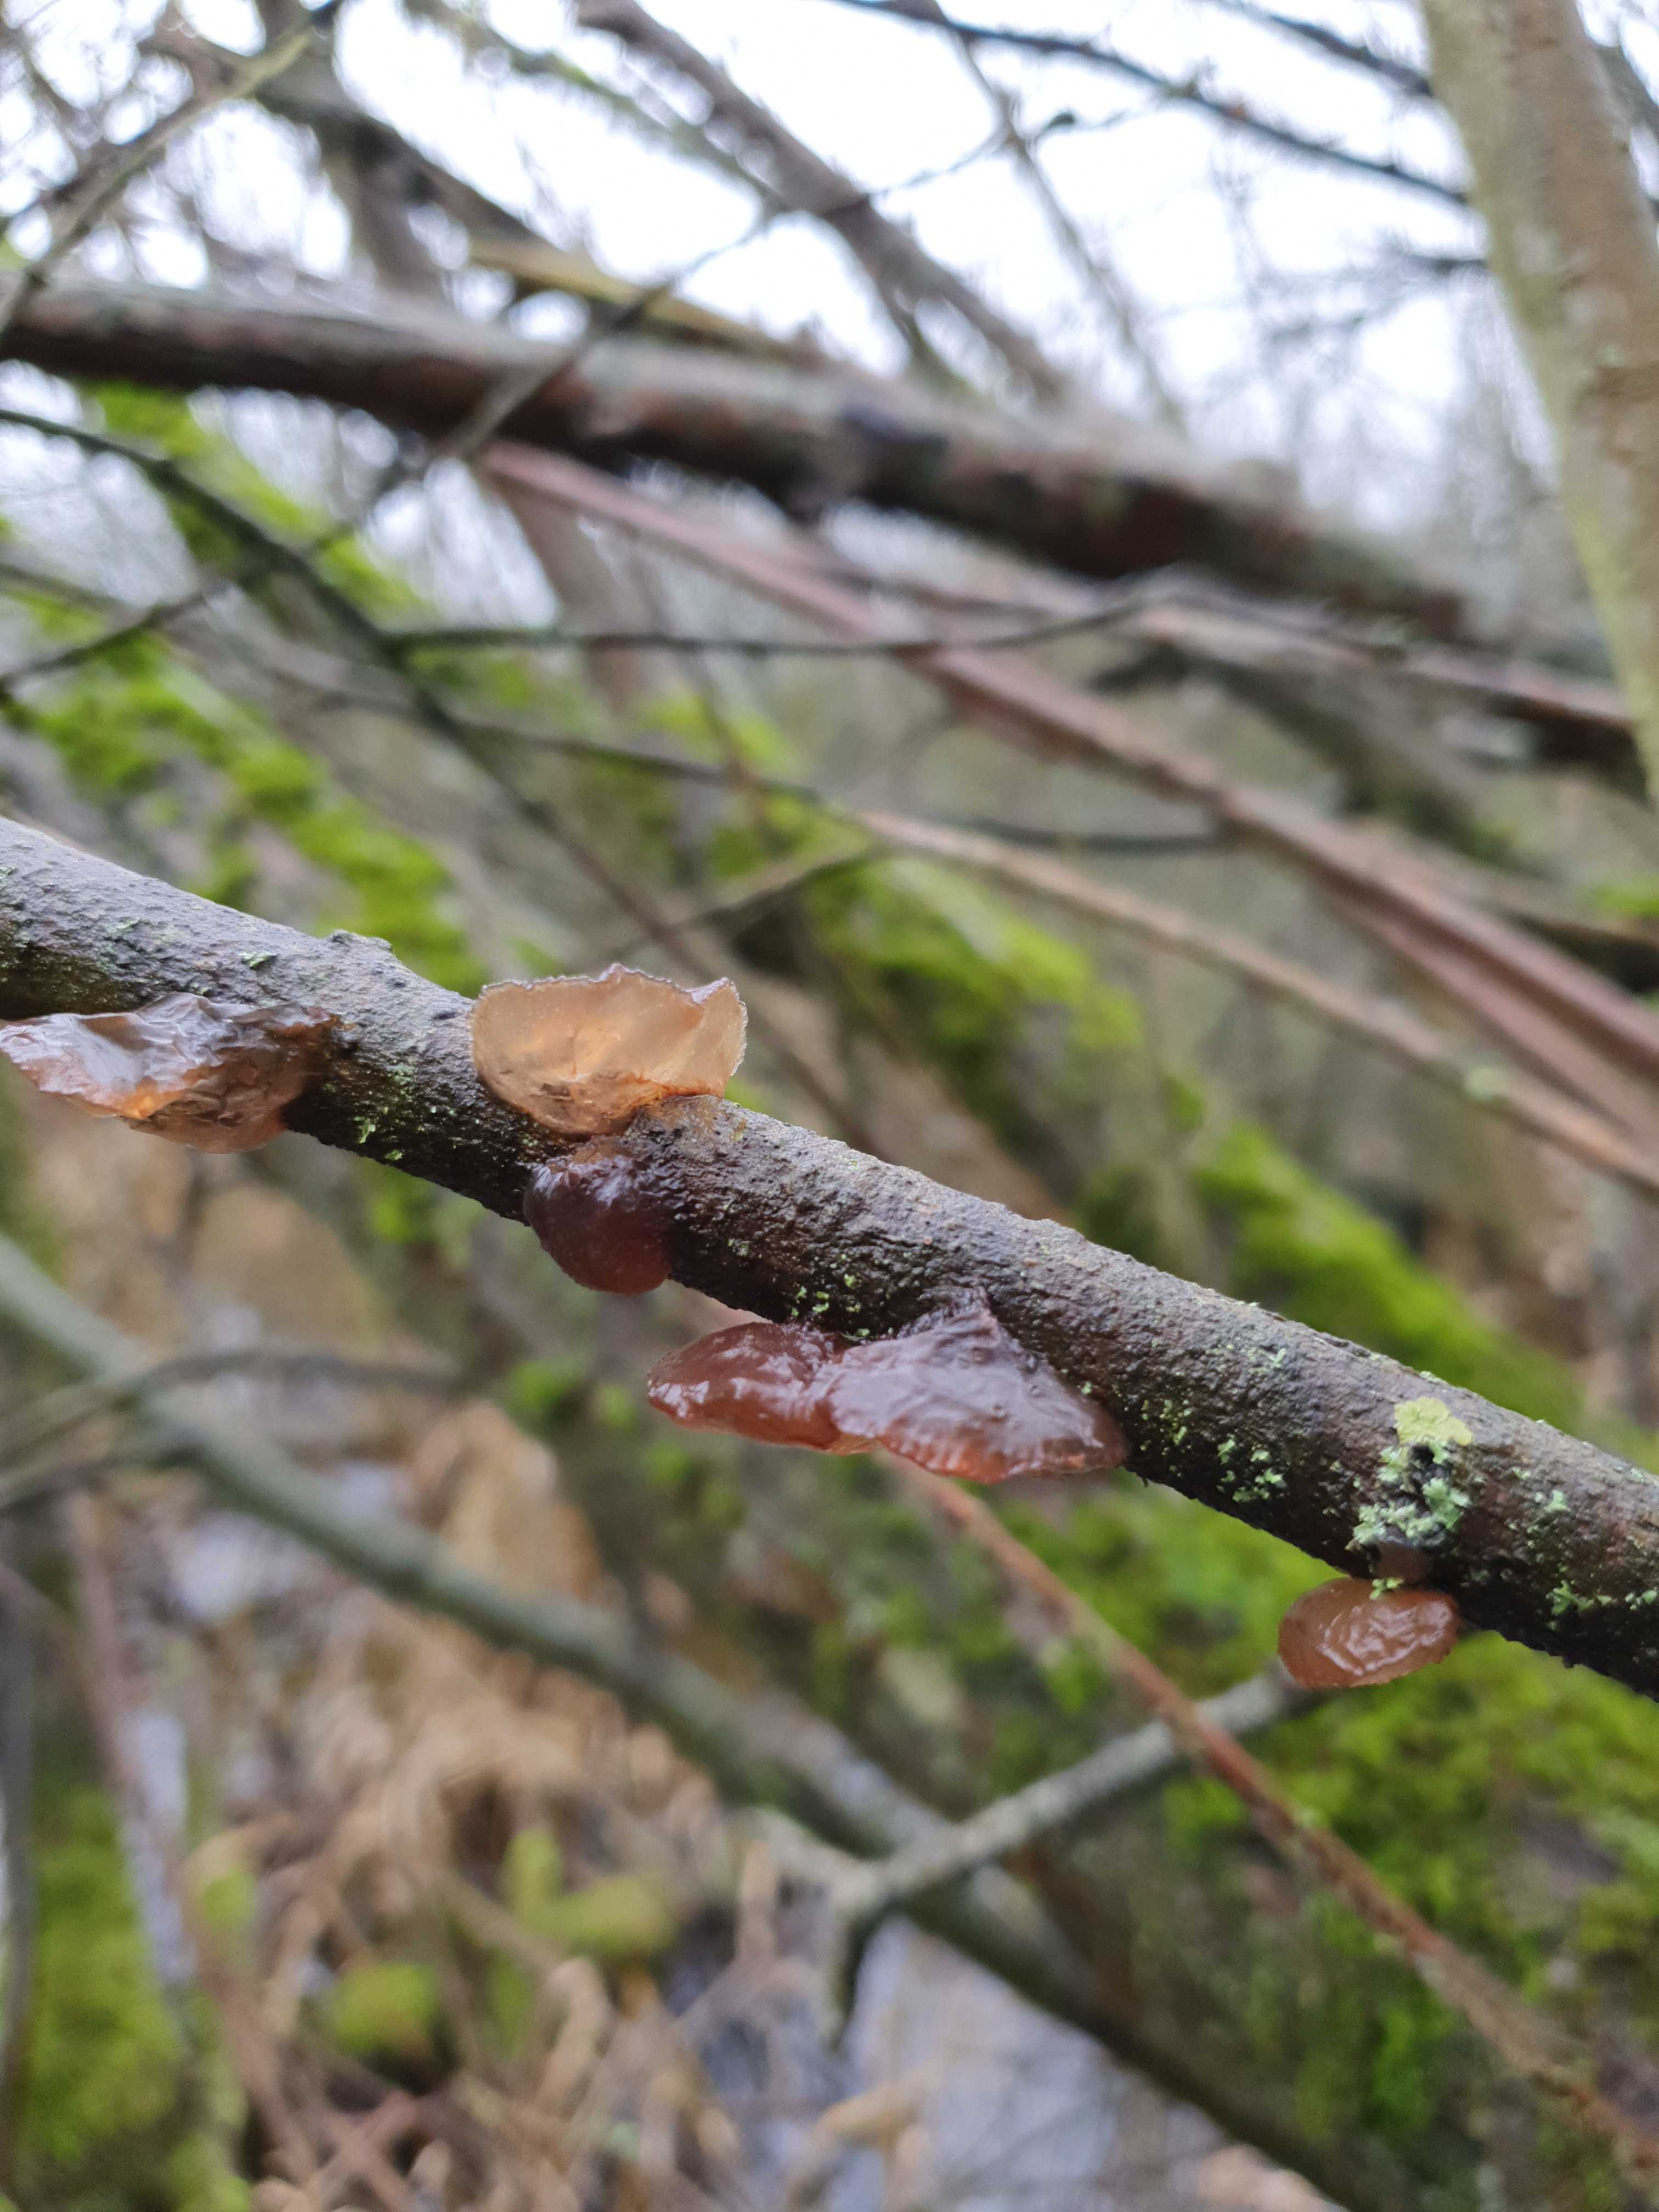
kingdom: Fungi
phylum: Basidiomycota
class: Agaricomycetes
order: Auriculariales
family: Auriculariaceae
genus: Exidia
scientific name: Exidia recisa
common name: pile-bævretop
